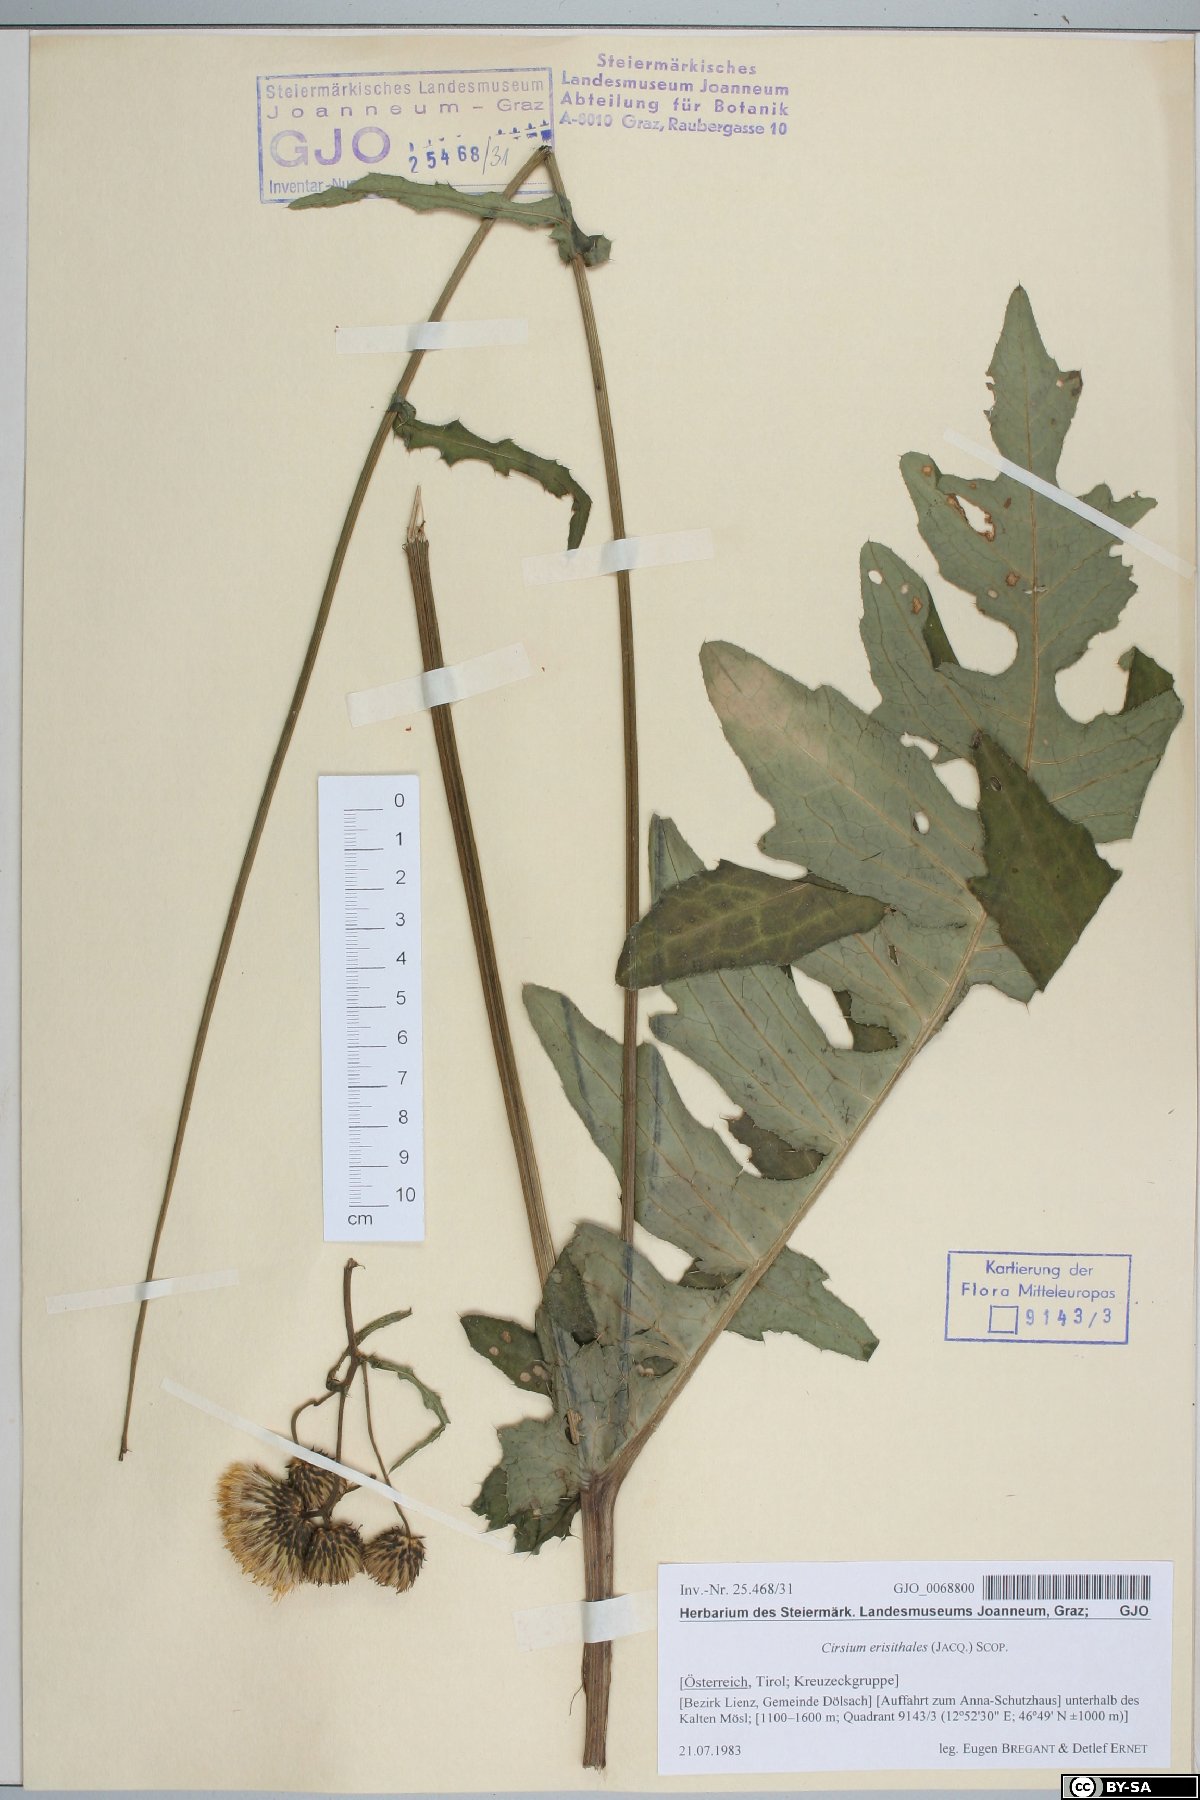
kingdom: Plantae
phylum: Tracheophyta
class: Magnoliopsida
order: Asterales
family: Asteraceae
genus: Cirsium
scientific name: Cirsium erisithales
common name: Yellow thistle
